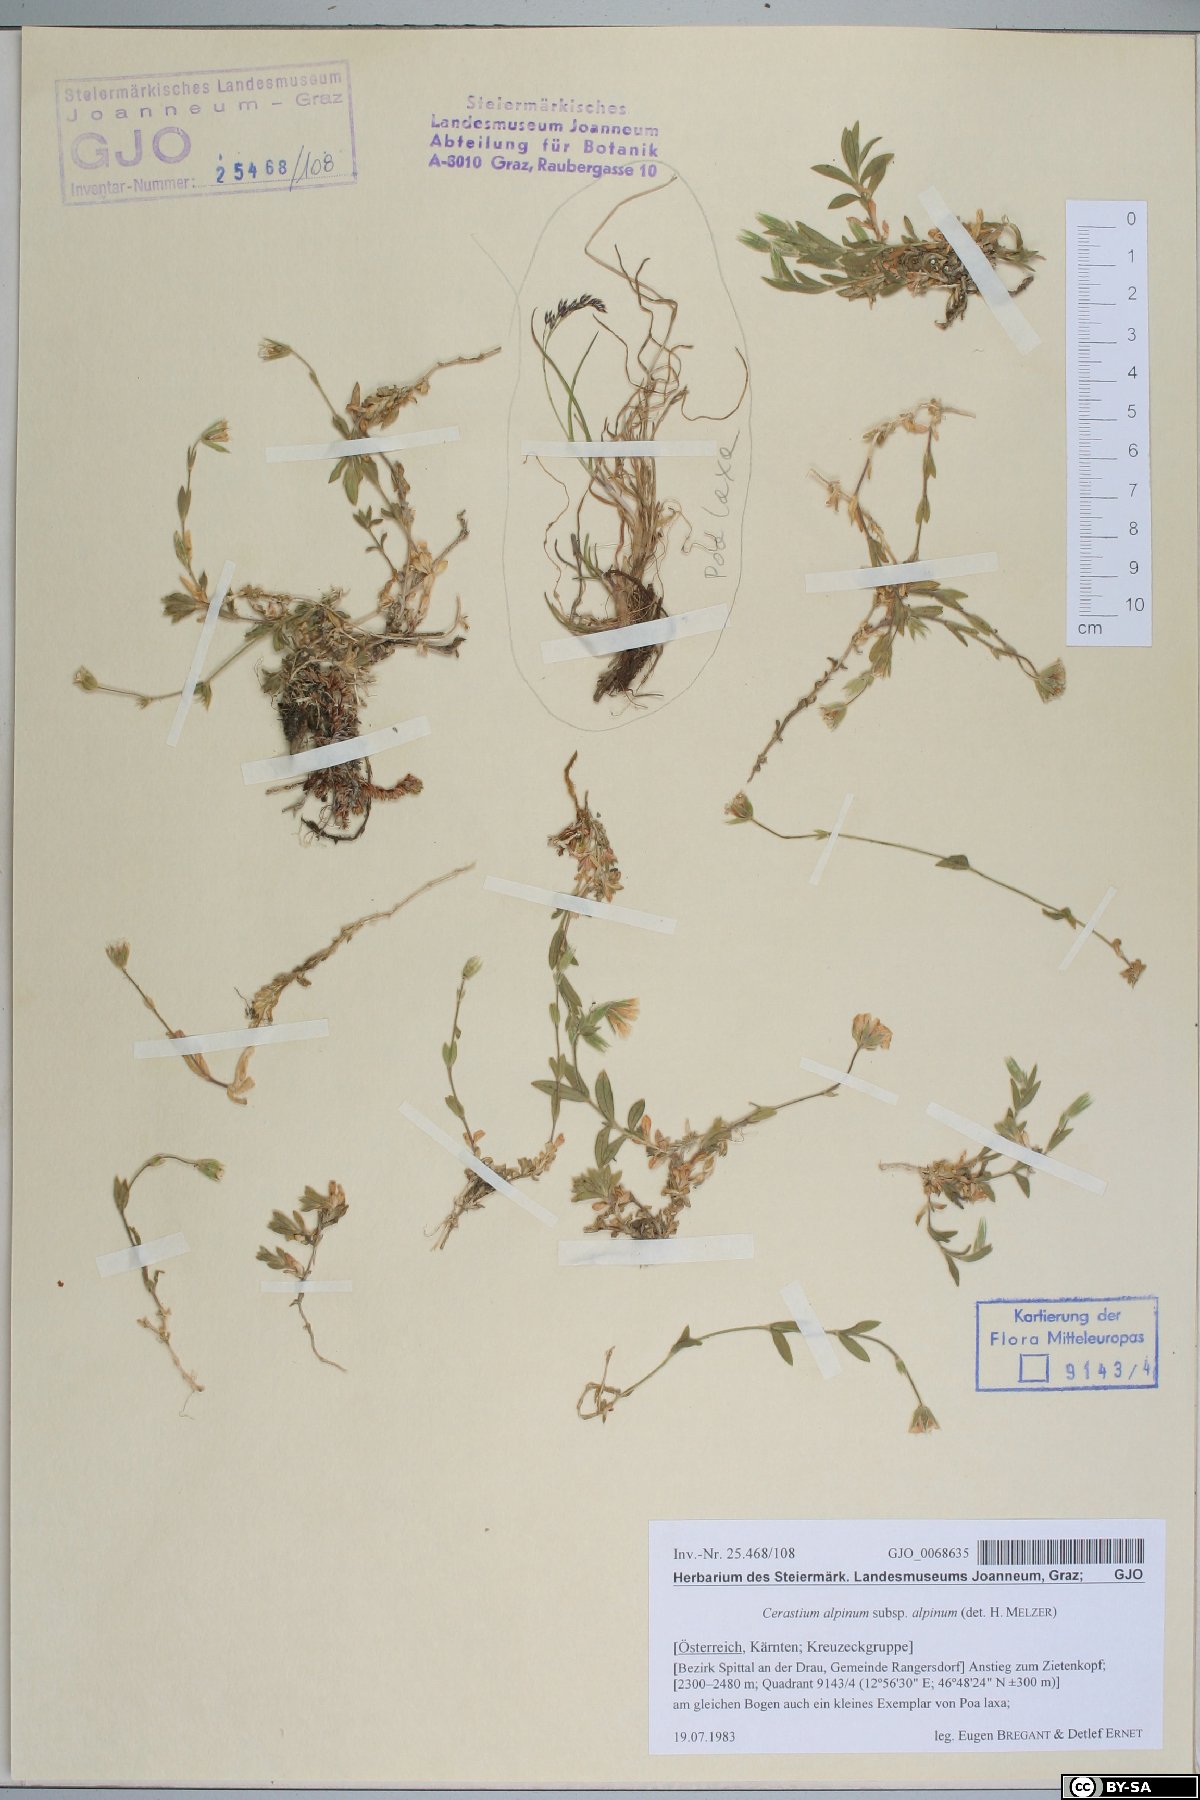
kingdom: Plantae
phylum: Tracheophyta
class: Magnoliopsida
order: Caryophyllales
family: Caryophyllaceae
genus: Cerastium
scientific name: Cerastium alpinum
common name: Alpine mouse-ear
